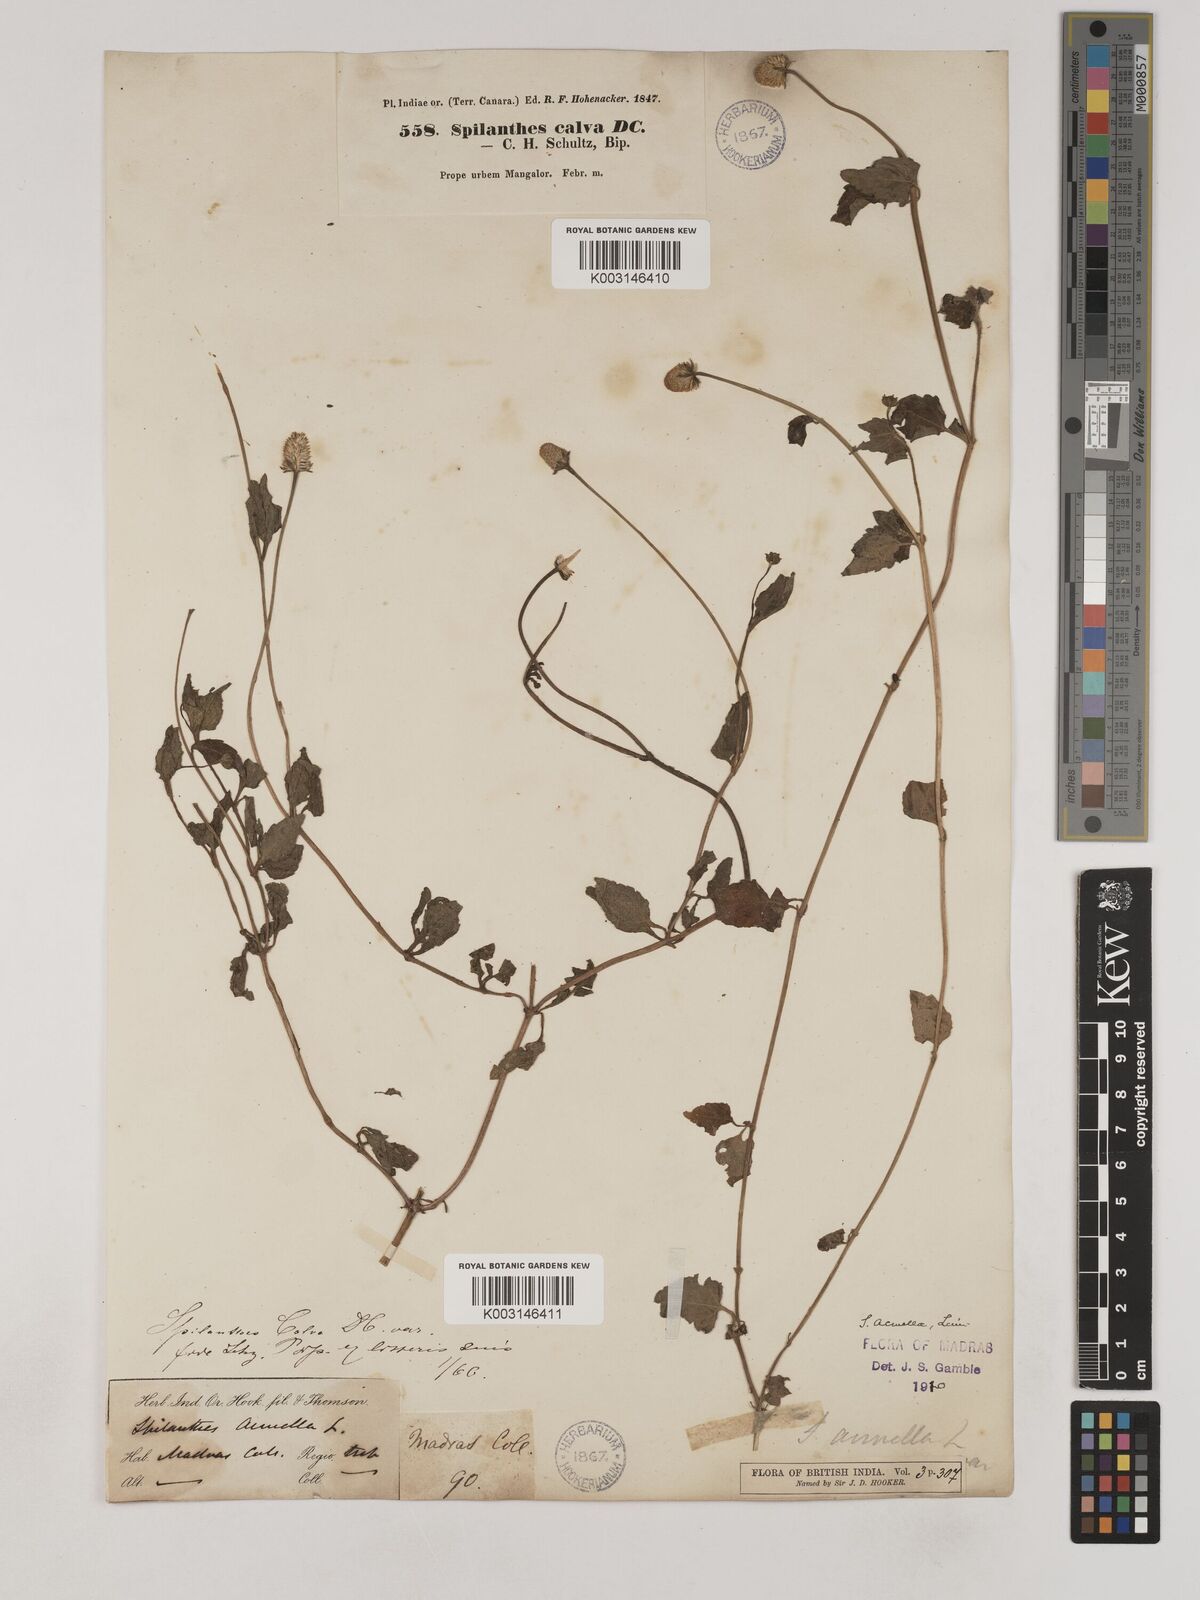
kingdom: Plantae
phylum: Tracheophyta
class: Magnoliopsida
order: Asterales
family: Asteraceae
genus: Acmella
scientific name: Acmella calva
